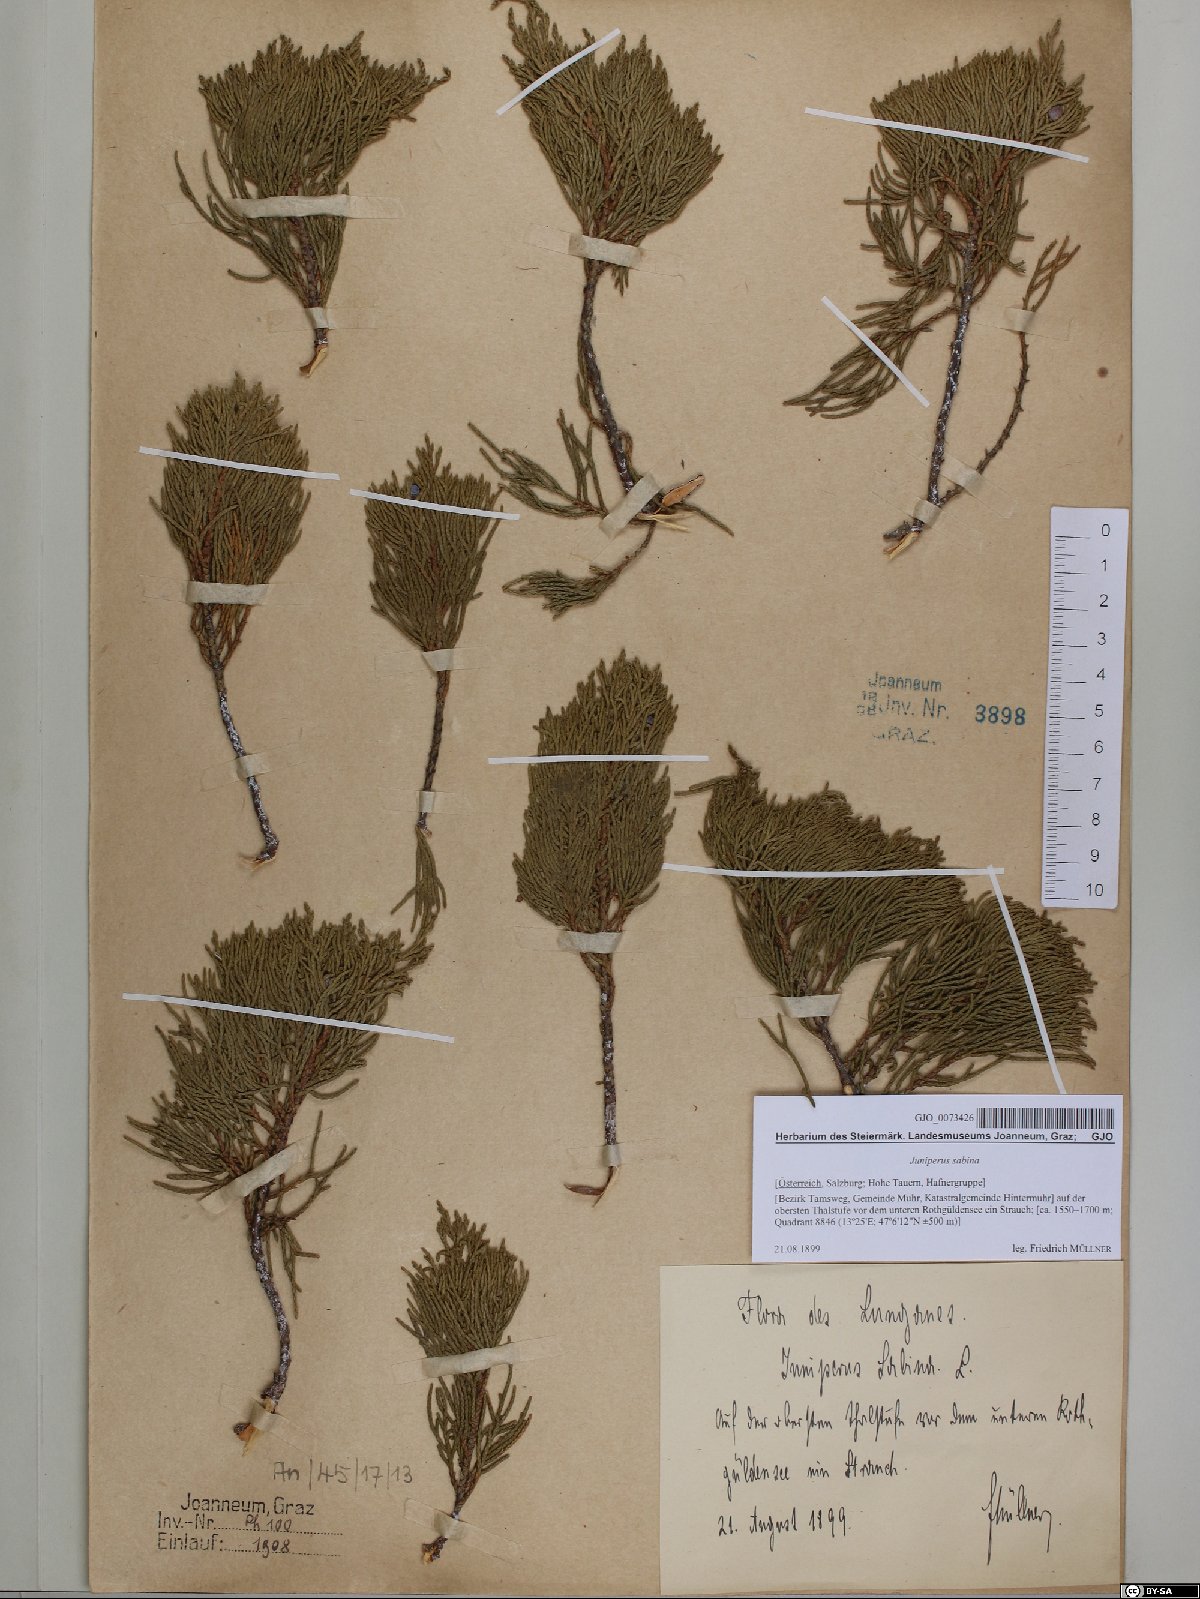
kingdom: Plantae
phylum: Tracheophyta
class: Pinopsida
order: Pinales
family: Cupressaceae
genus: Juniperus
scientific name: Juniperus sabina
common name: Savin
